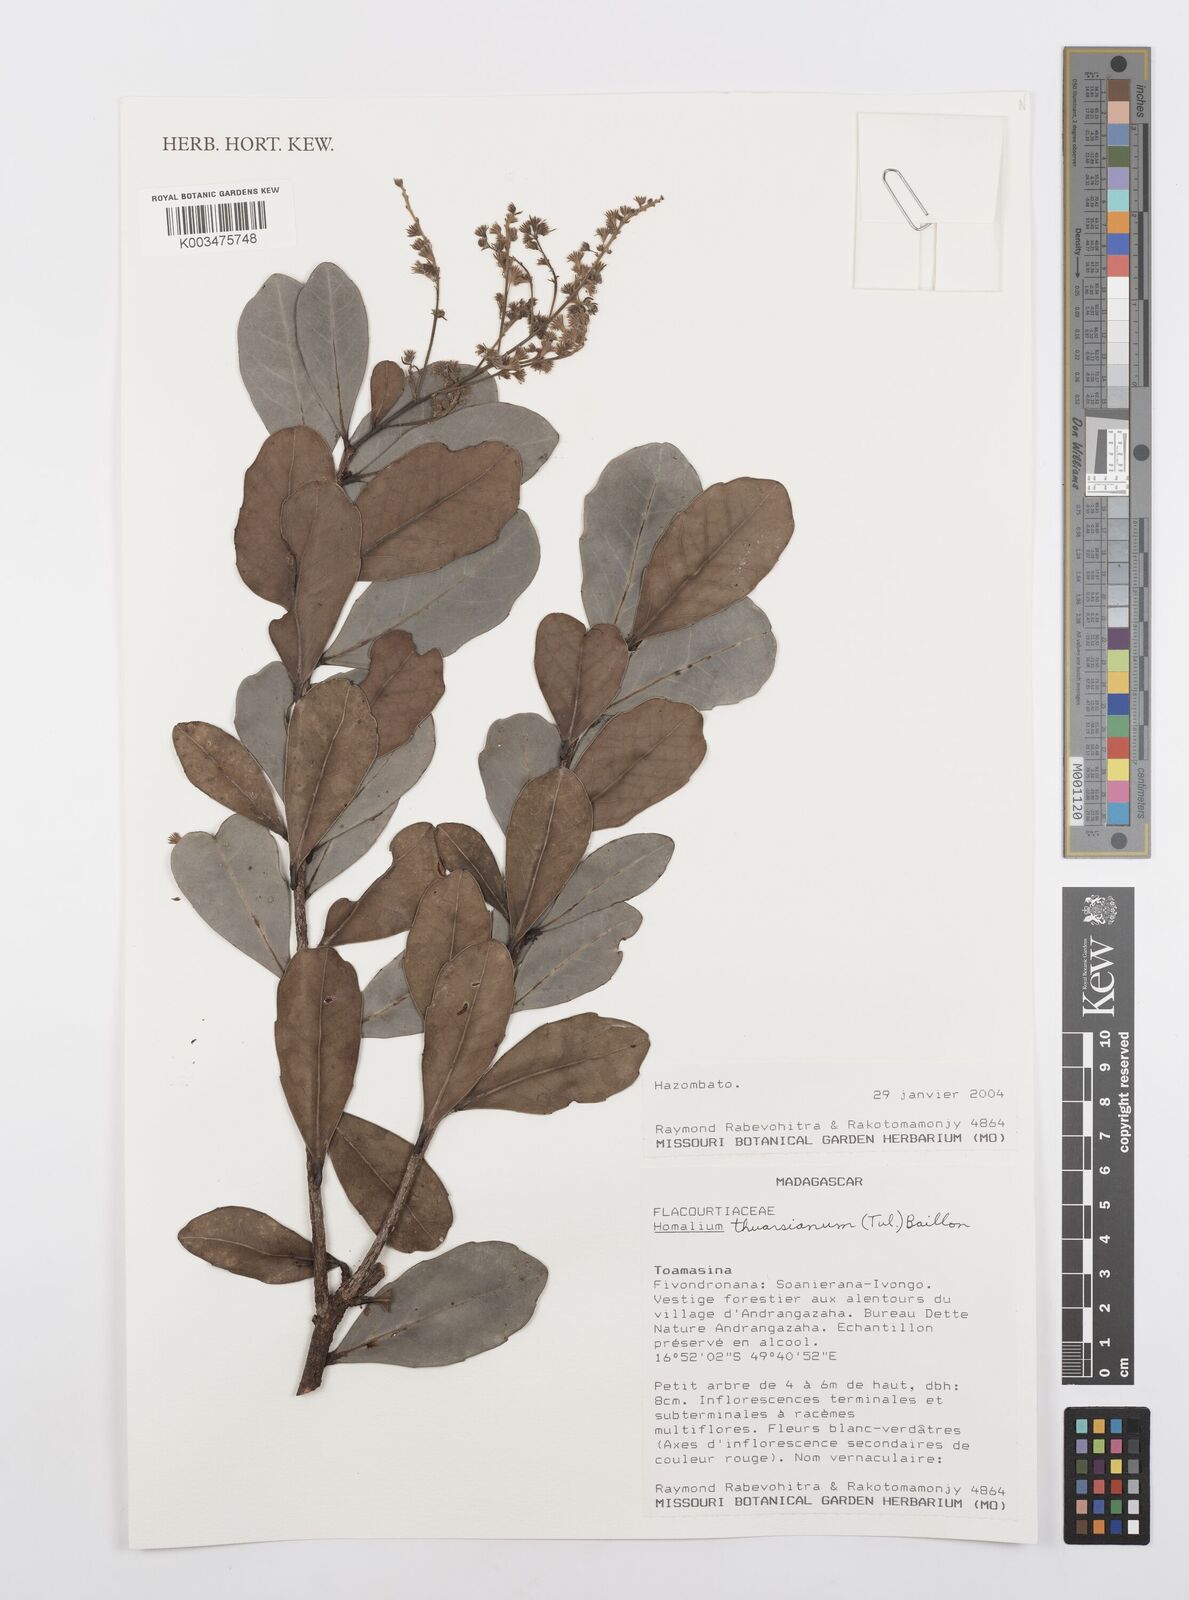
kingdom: Plantae
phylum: Tracheophyta
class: Magnoliopsida
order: Malpighiales
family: Salicaceae
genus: Homalium
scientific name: Homalium thuarsianum
